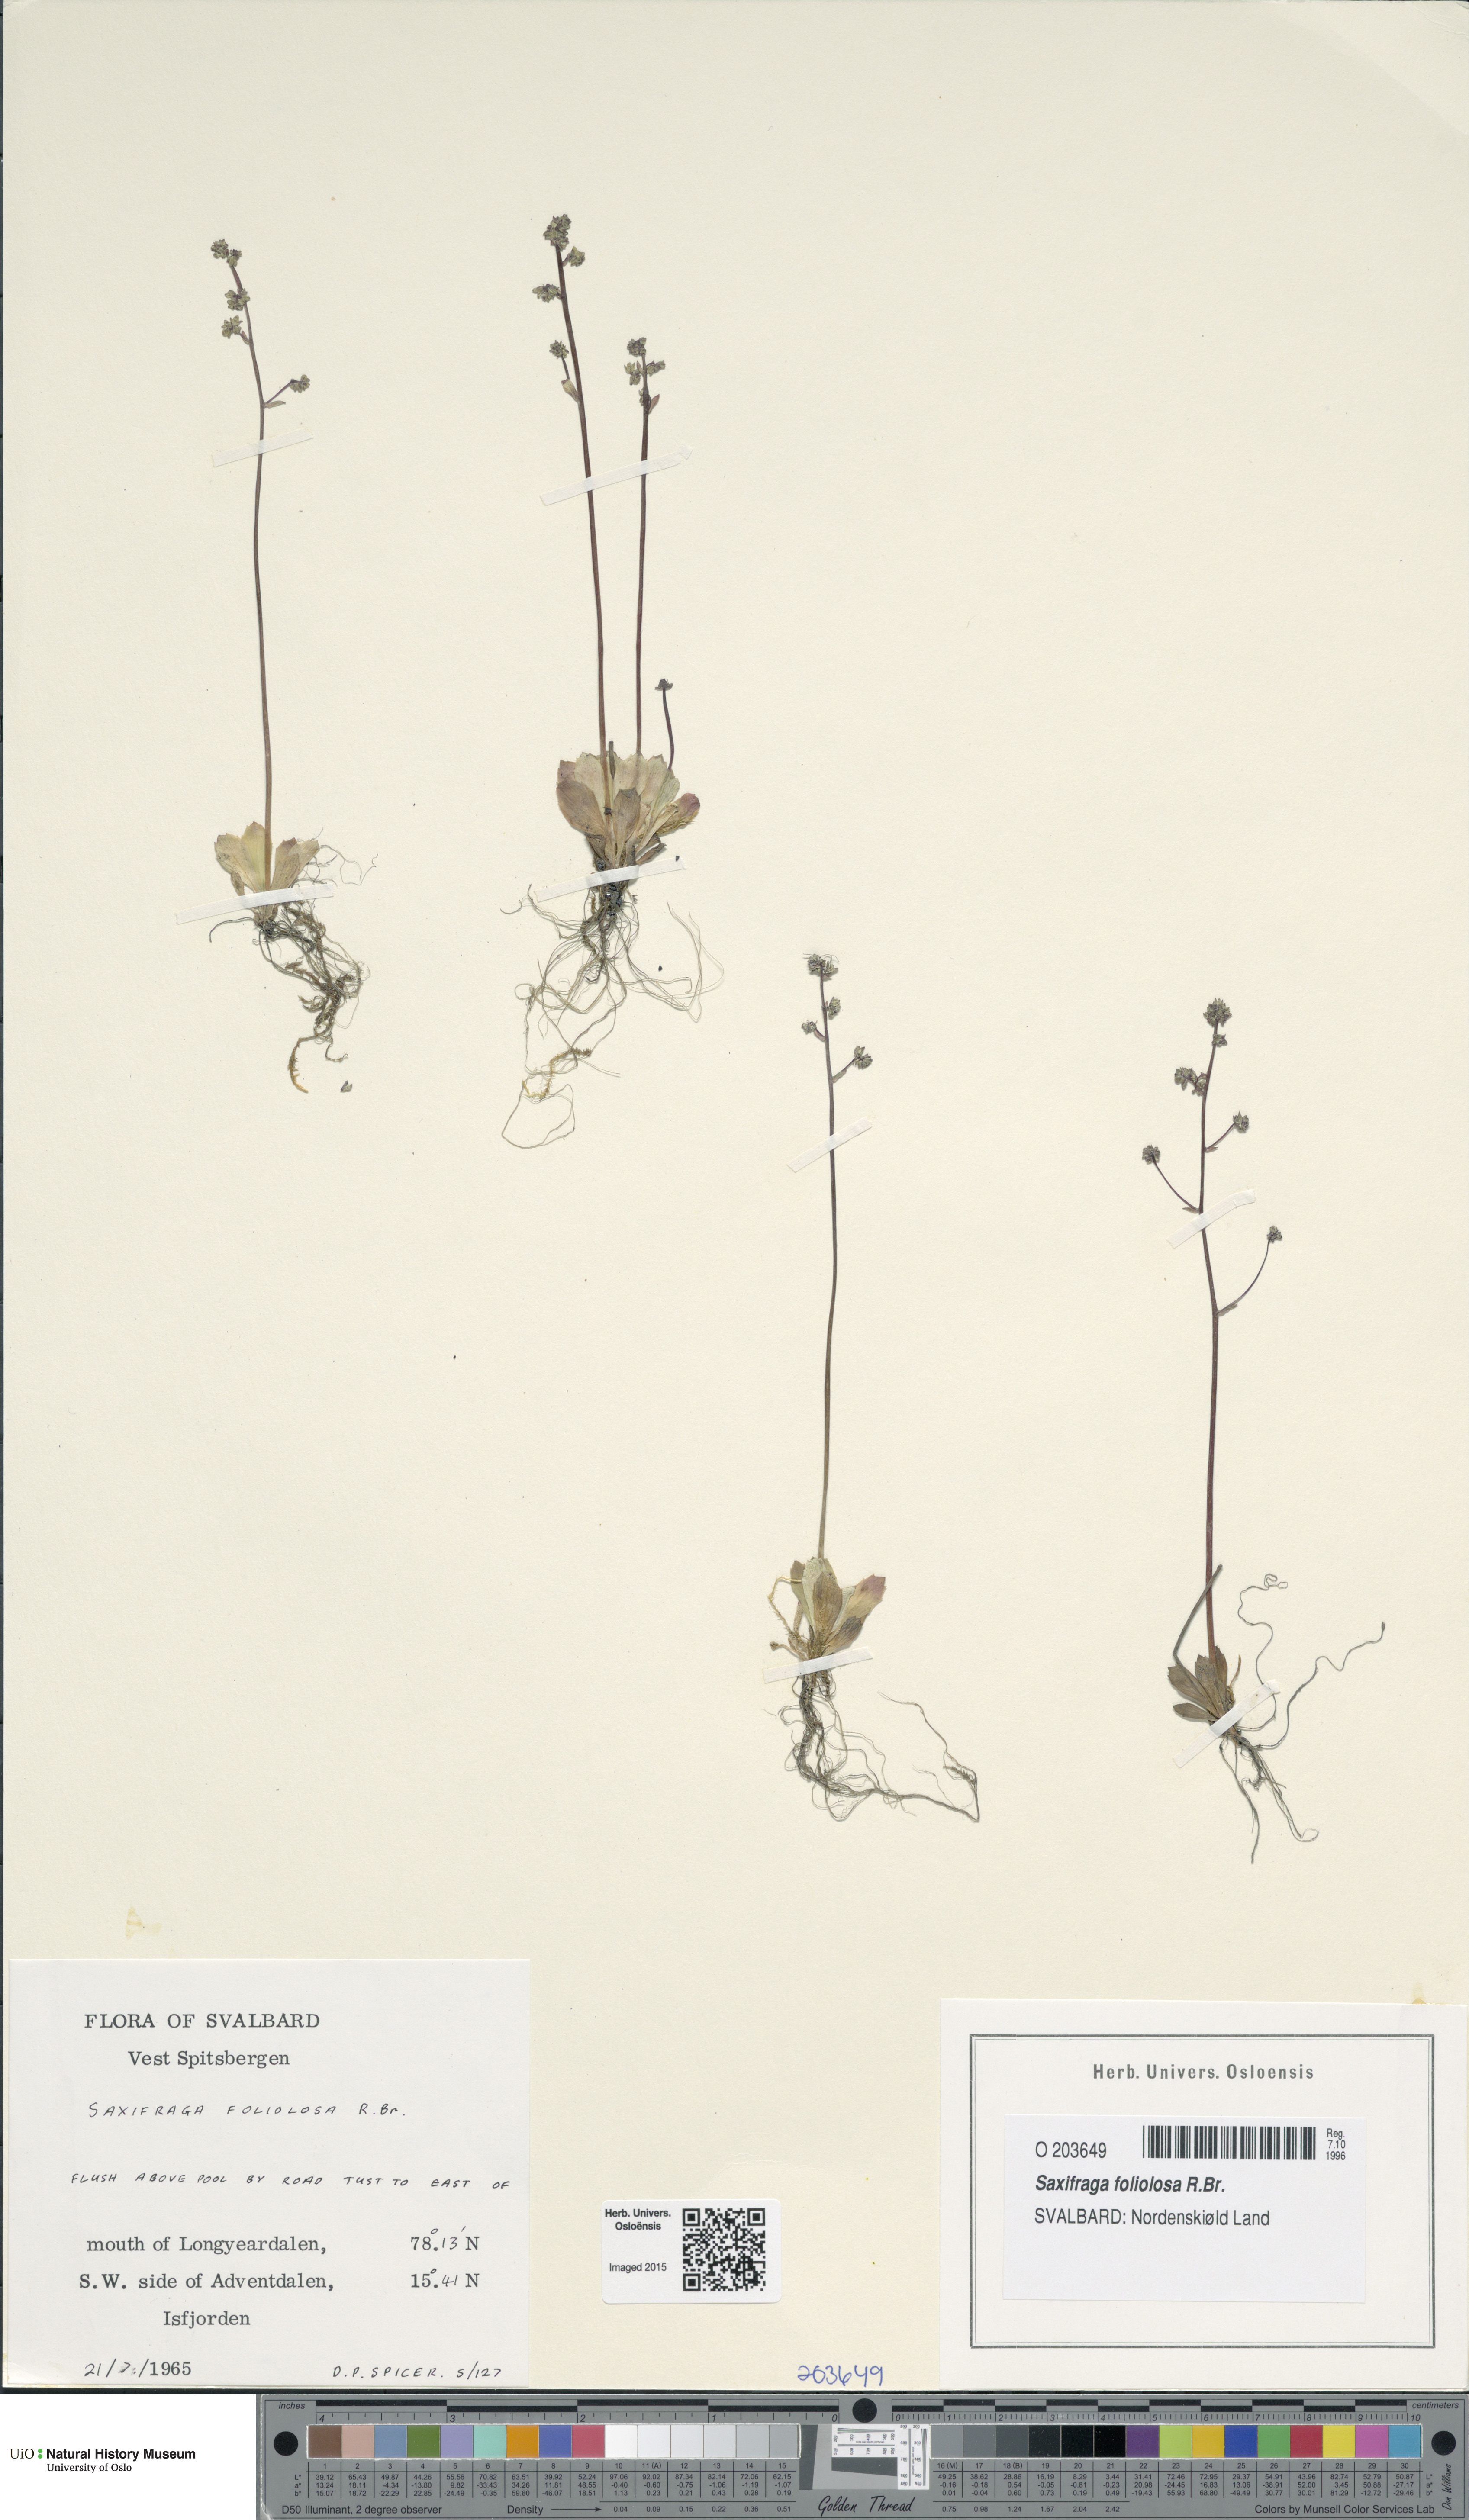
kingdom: Plantae
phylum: Tracheophyta
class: Magnoliopsida
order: Saxifragales
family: Saxifragaceae
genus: Micranthes
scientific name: Micranthes foliolosa
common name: Leafystem saxifrage
